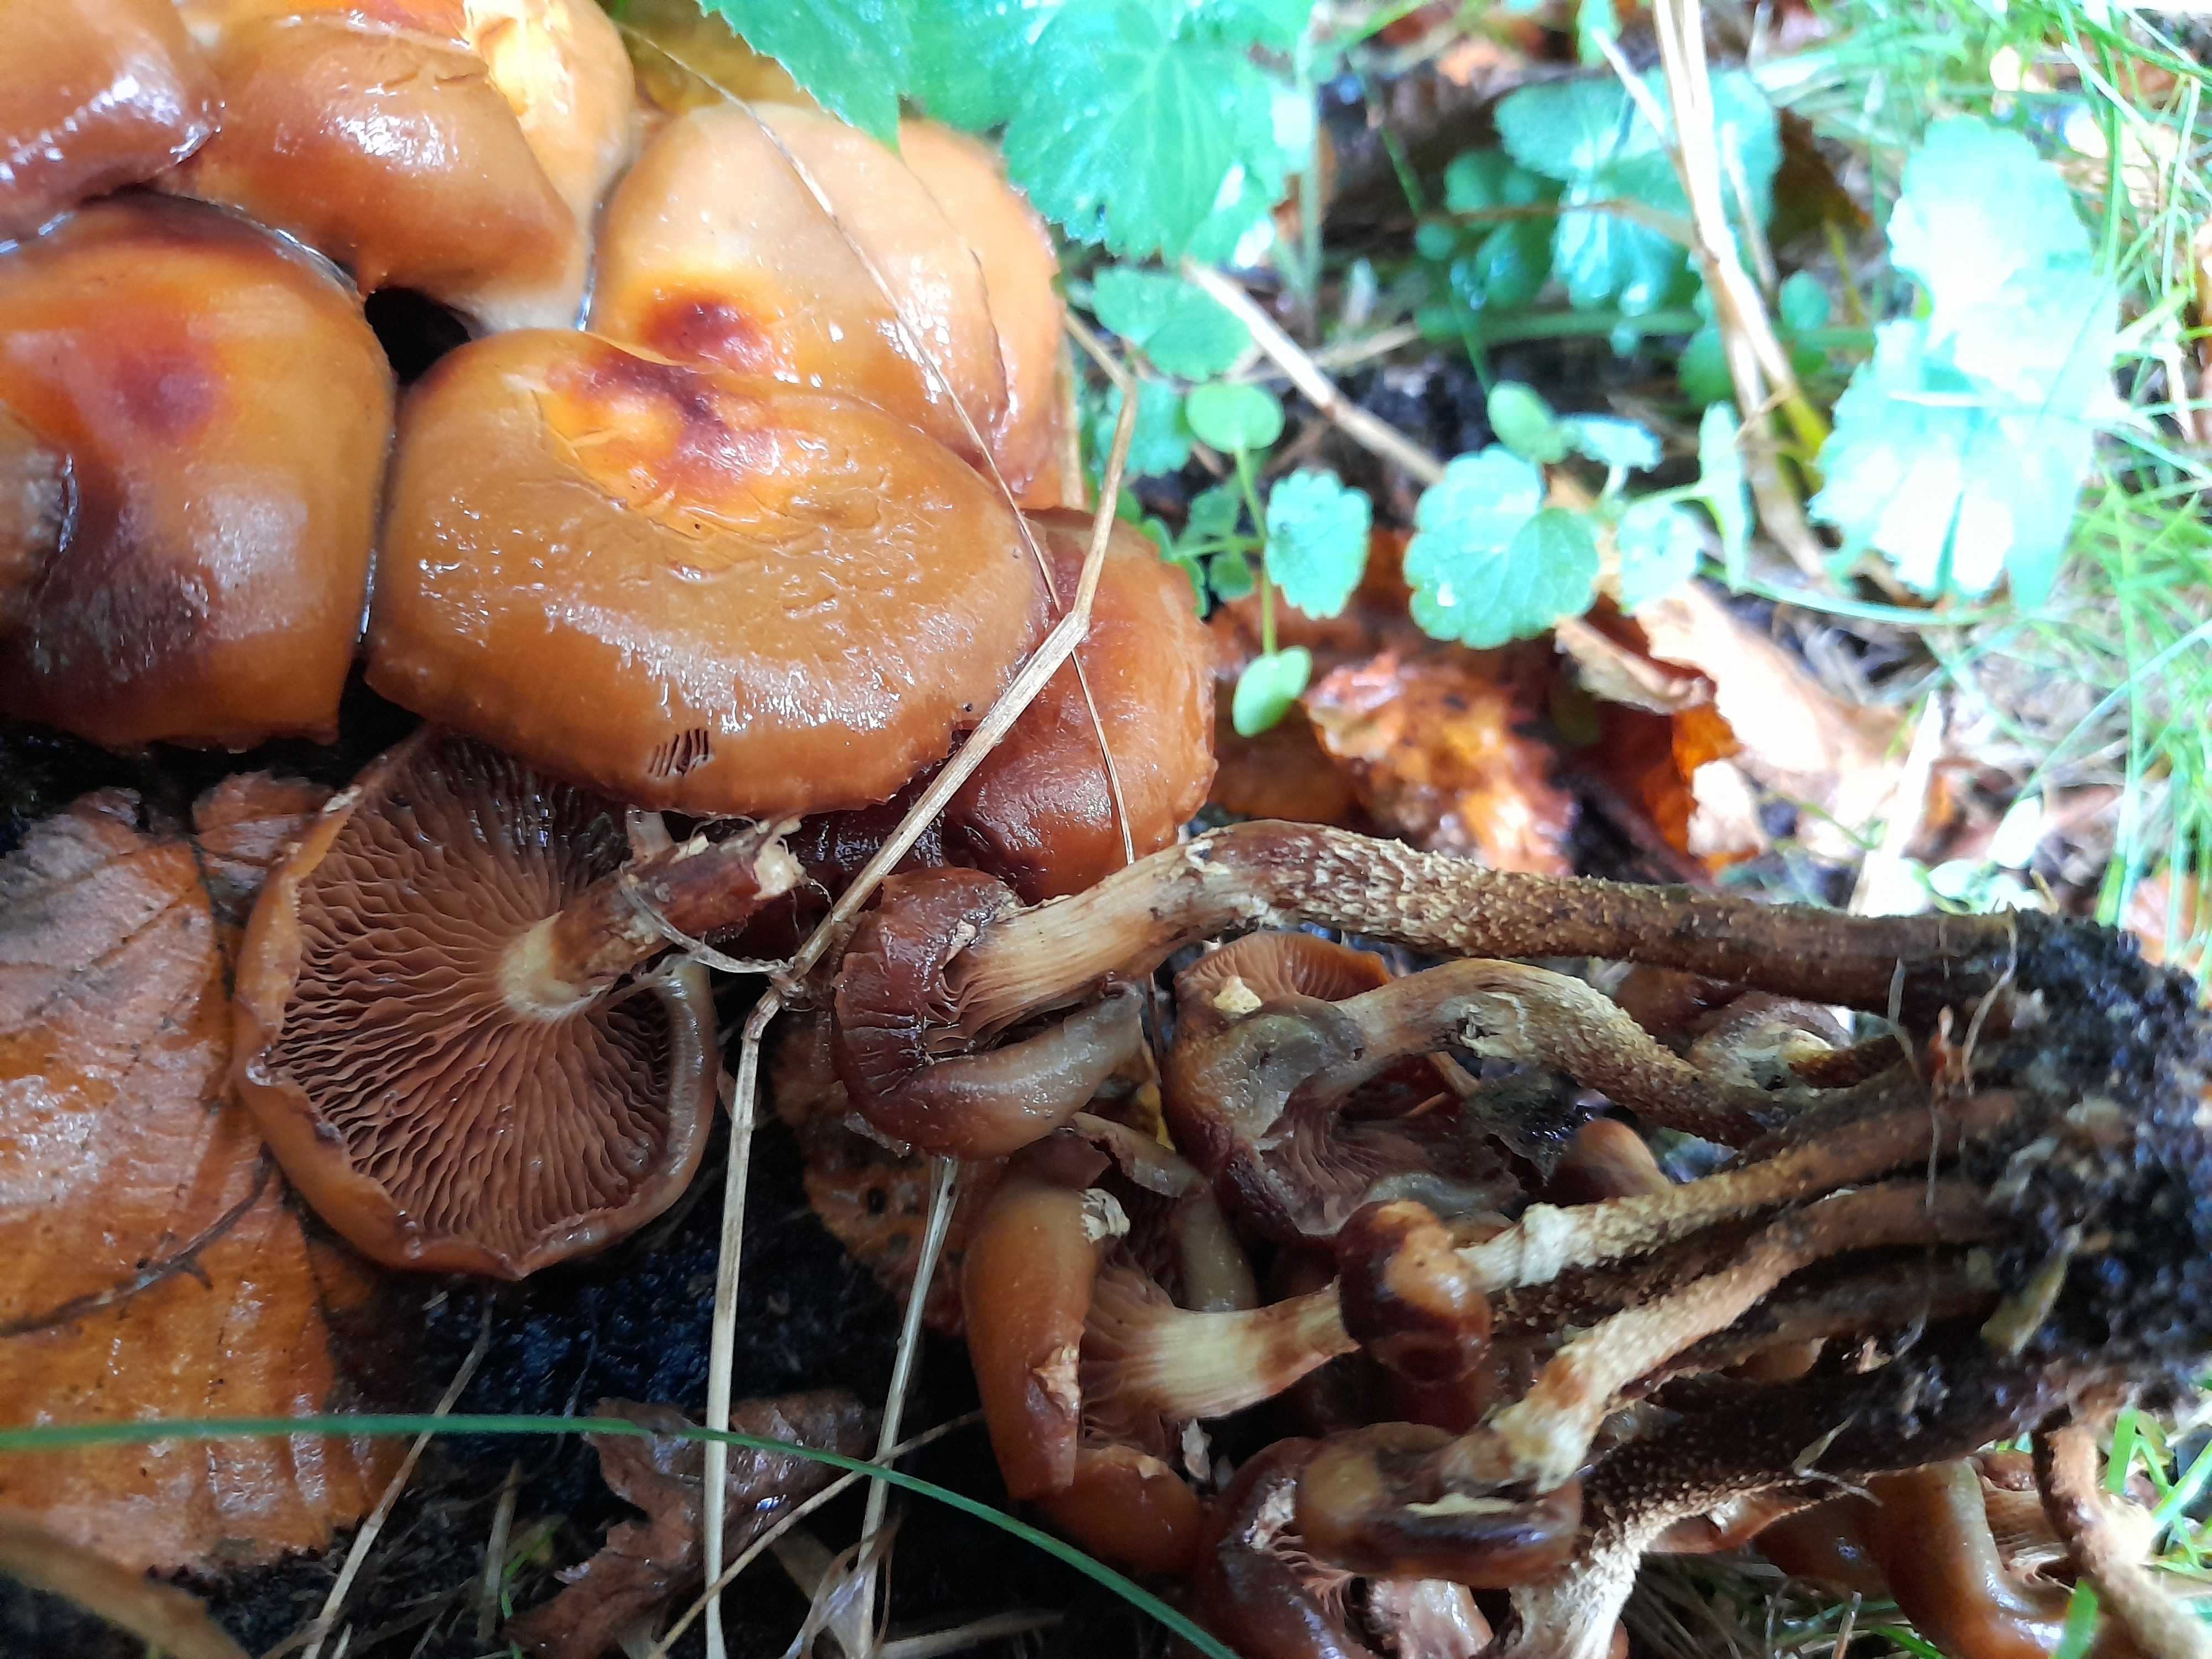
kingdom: Fungi
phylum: Basidiomycota
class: Agaricomycetes
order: Agaricales
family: Strophariaceae
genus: Kuehneromyces
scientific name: Kuehneromyces mutabilis
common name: foranderlig skælhat
